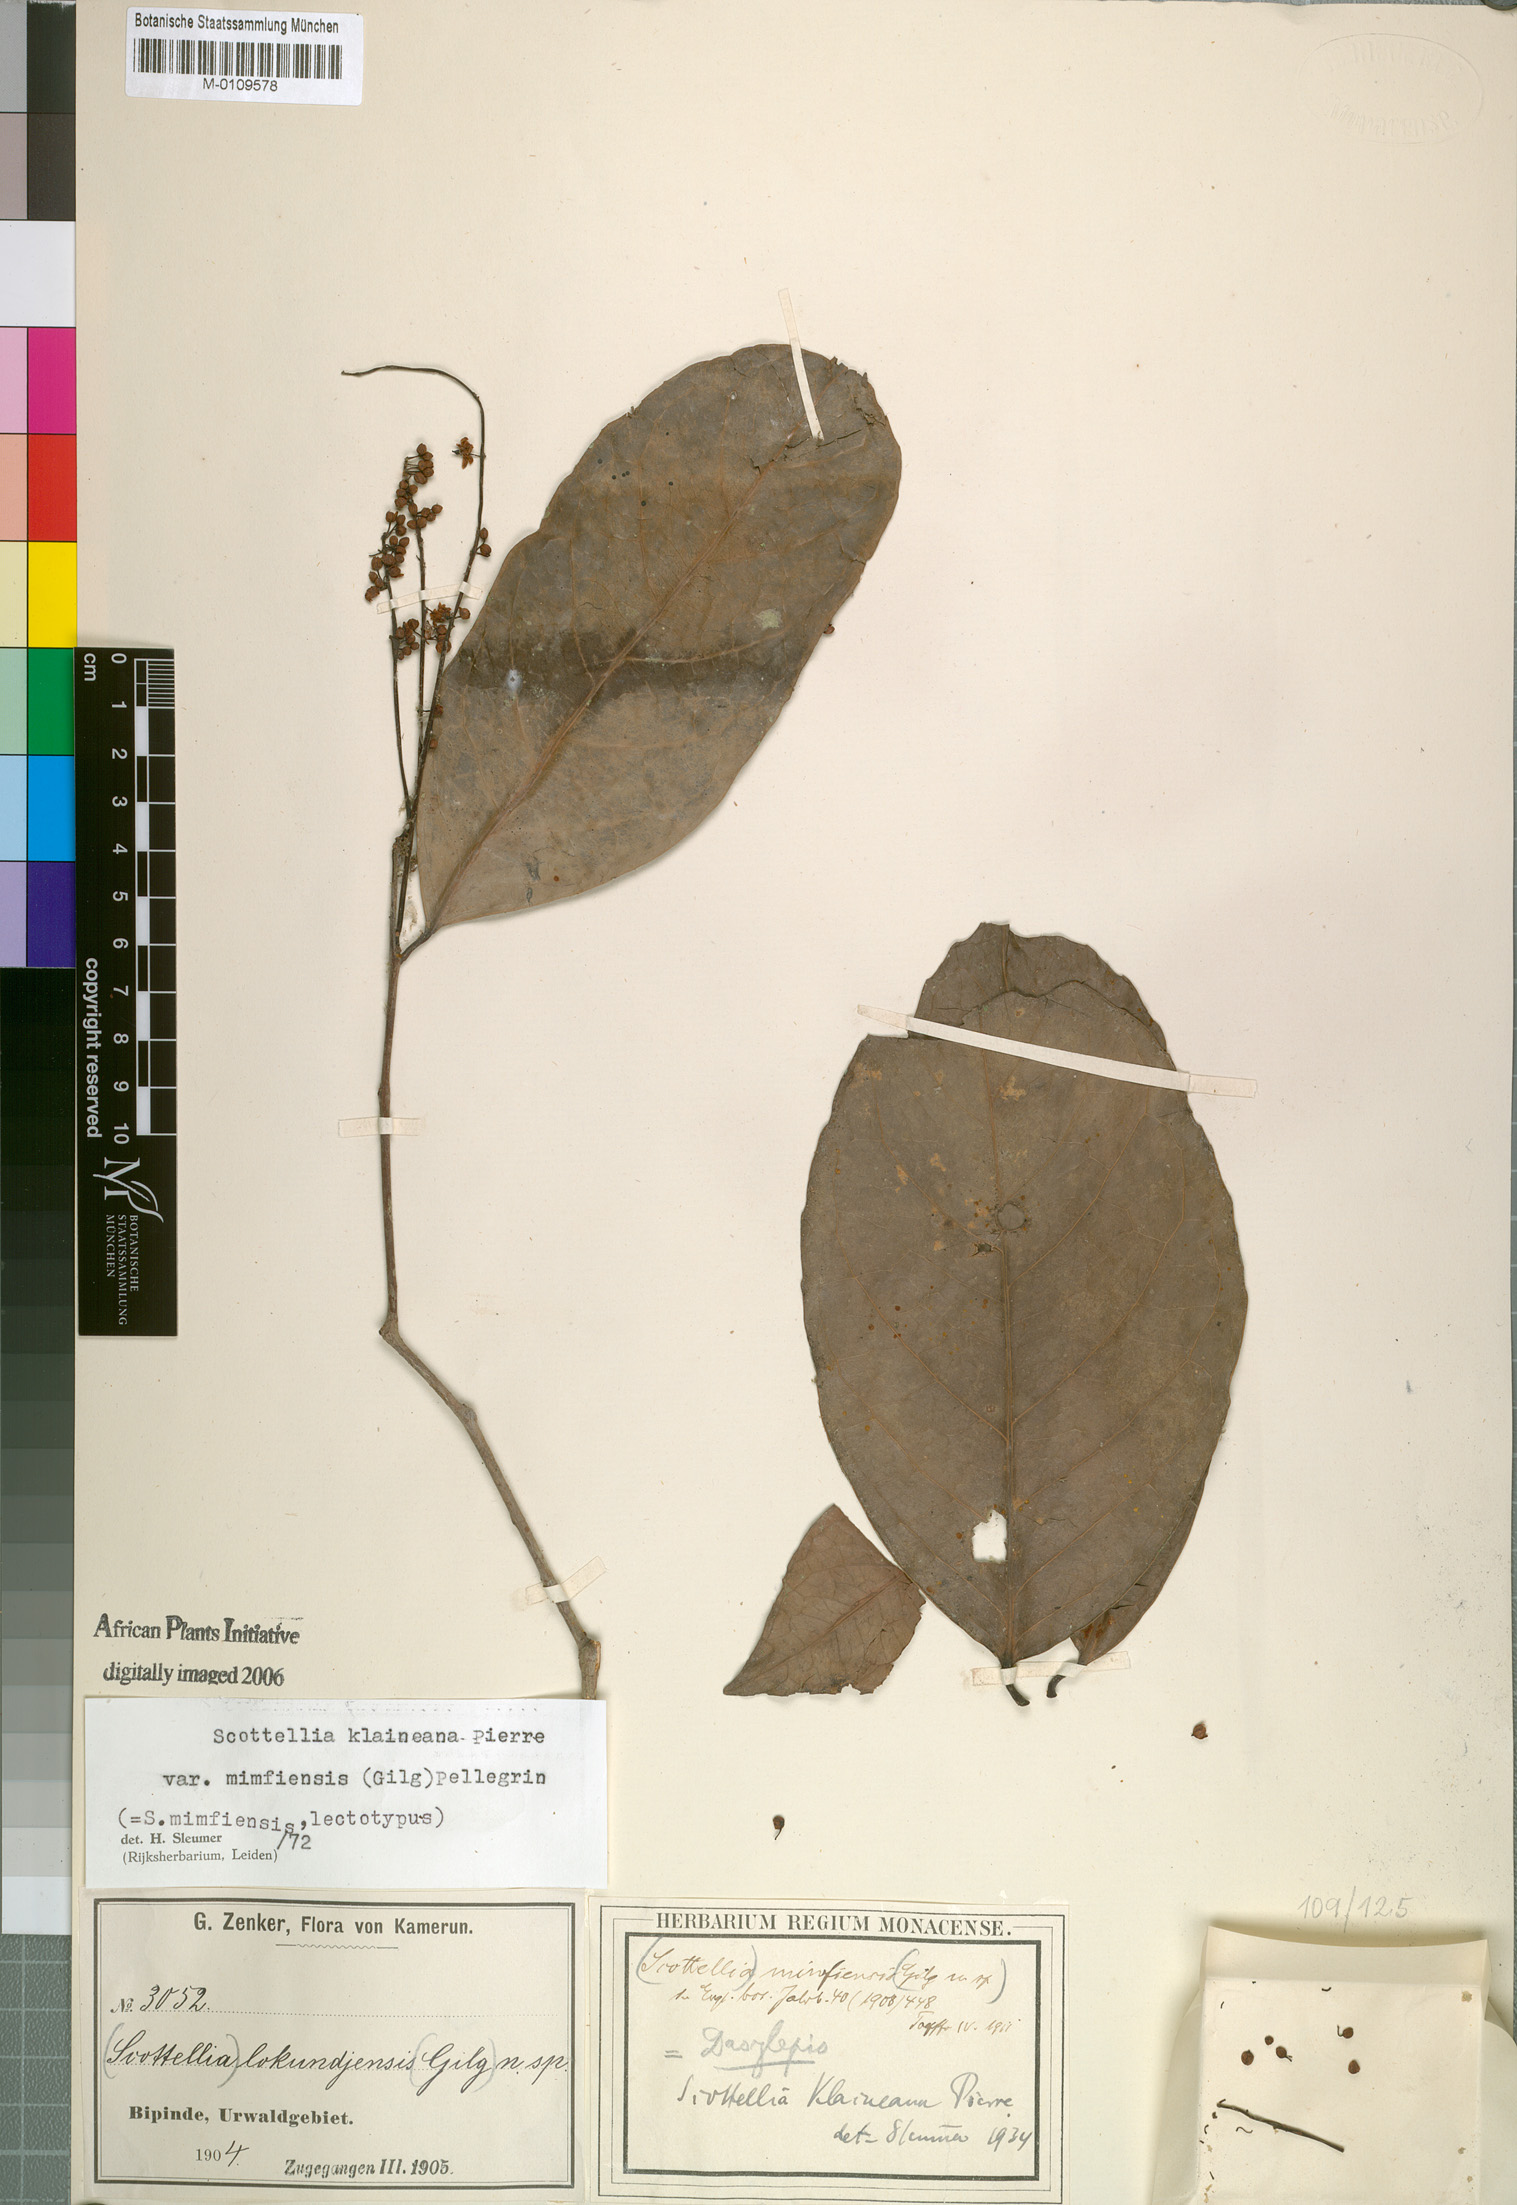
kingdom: Plantae
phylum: Tracheophyta
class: Magnoliopsida
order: Malpighiales
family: Achariaceae
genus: Scottellia
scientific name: Scottellia klaineana
